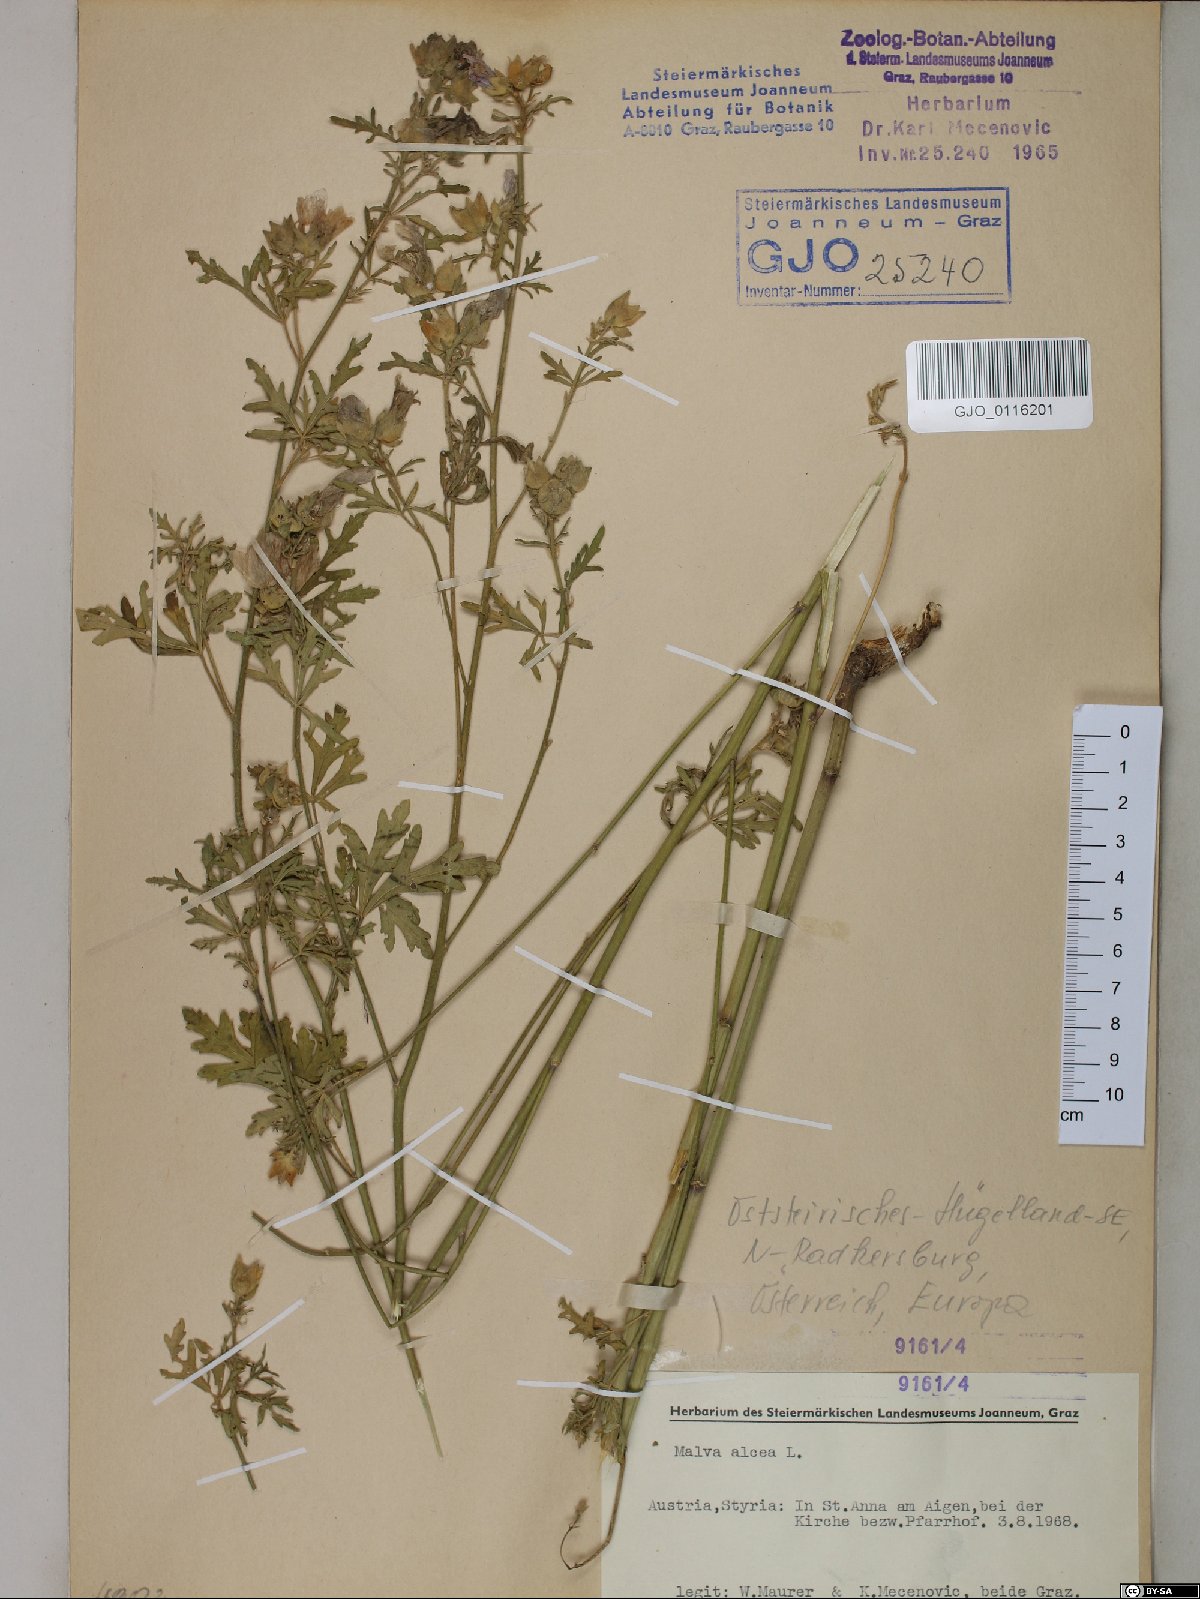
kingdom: Plantae
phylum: Tracheophyta
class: Magnoliopsida
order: Malvales
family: Malvaceae
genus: Malva
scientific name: Malva alcea
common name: Greater musk-mallow
